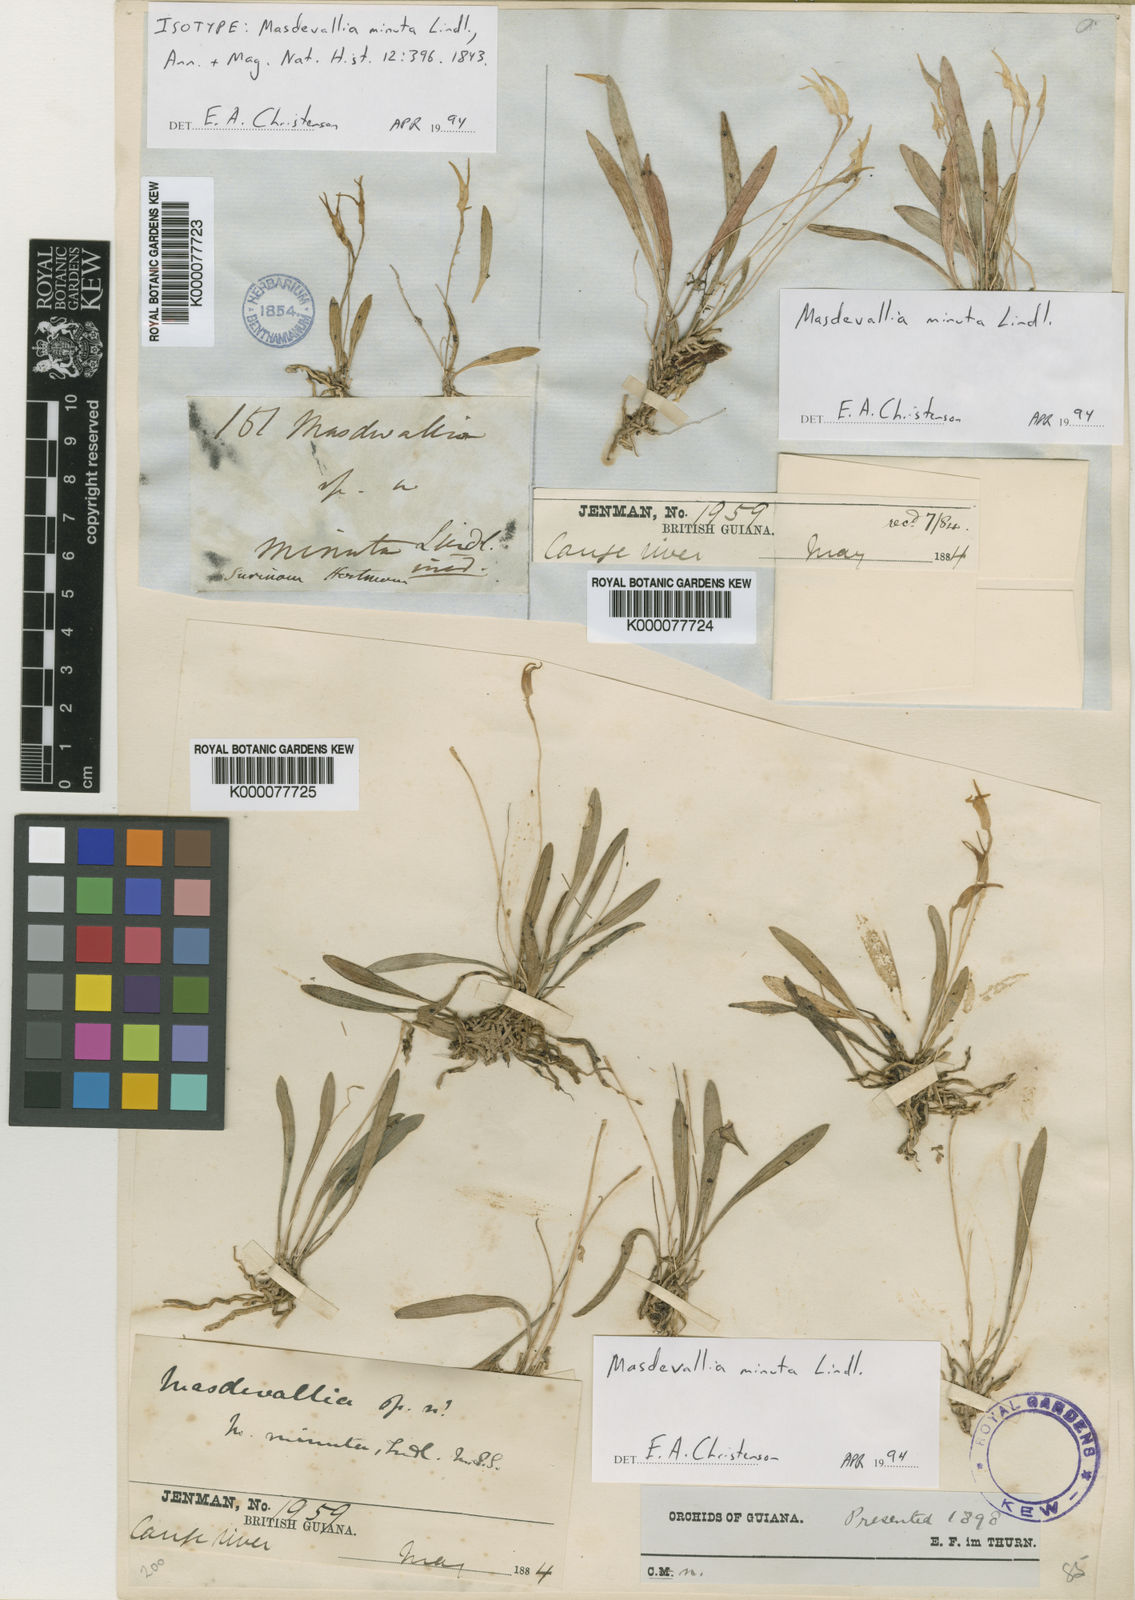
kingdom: Plantae
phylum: Tracheophyta
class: Liliopsida
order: Asparagales
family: Orchidaceae
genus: Masdevallia
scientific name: Masdevallia minuta
